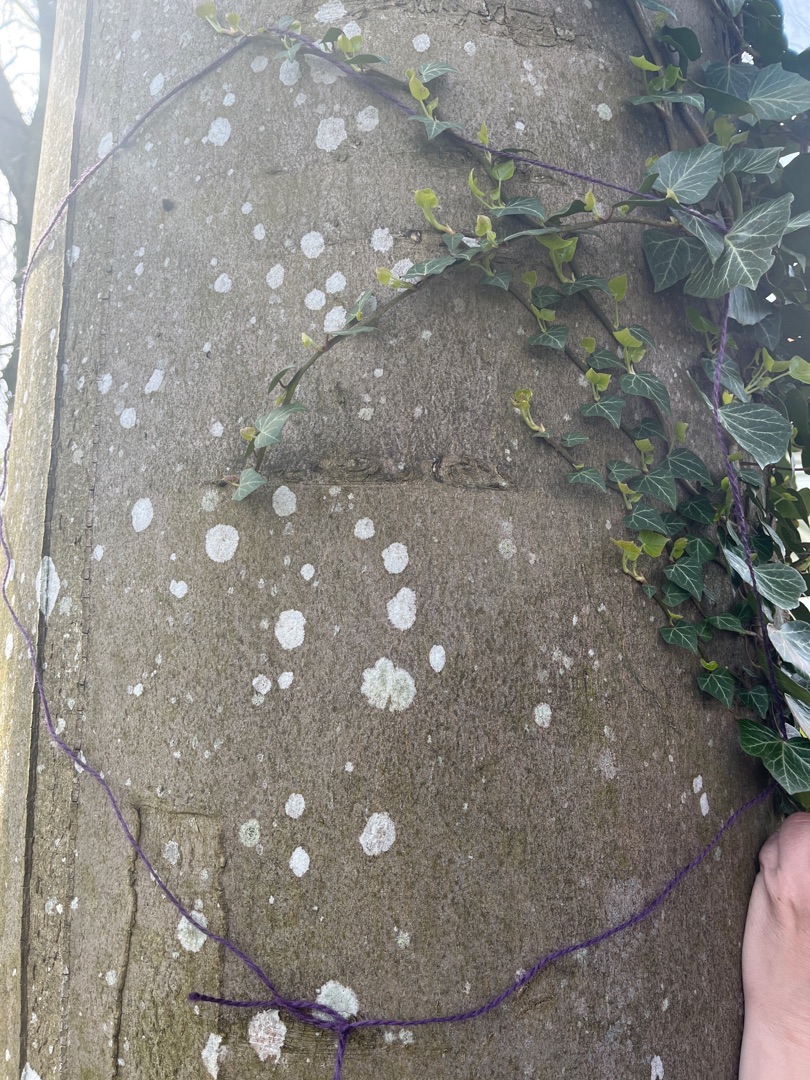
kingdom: Fungi
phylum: Ascomycota
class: Lecanoromycetes
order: Lecanorales
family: Lecanoraceae
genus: Lecidella
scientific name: Lecidella elaeochroma
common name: Grågrøn skivelav
